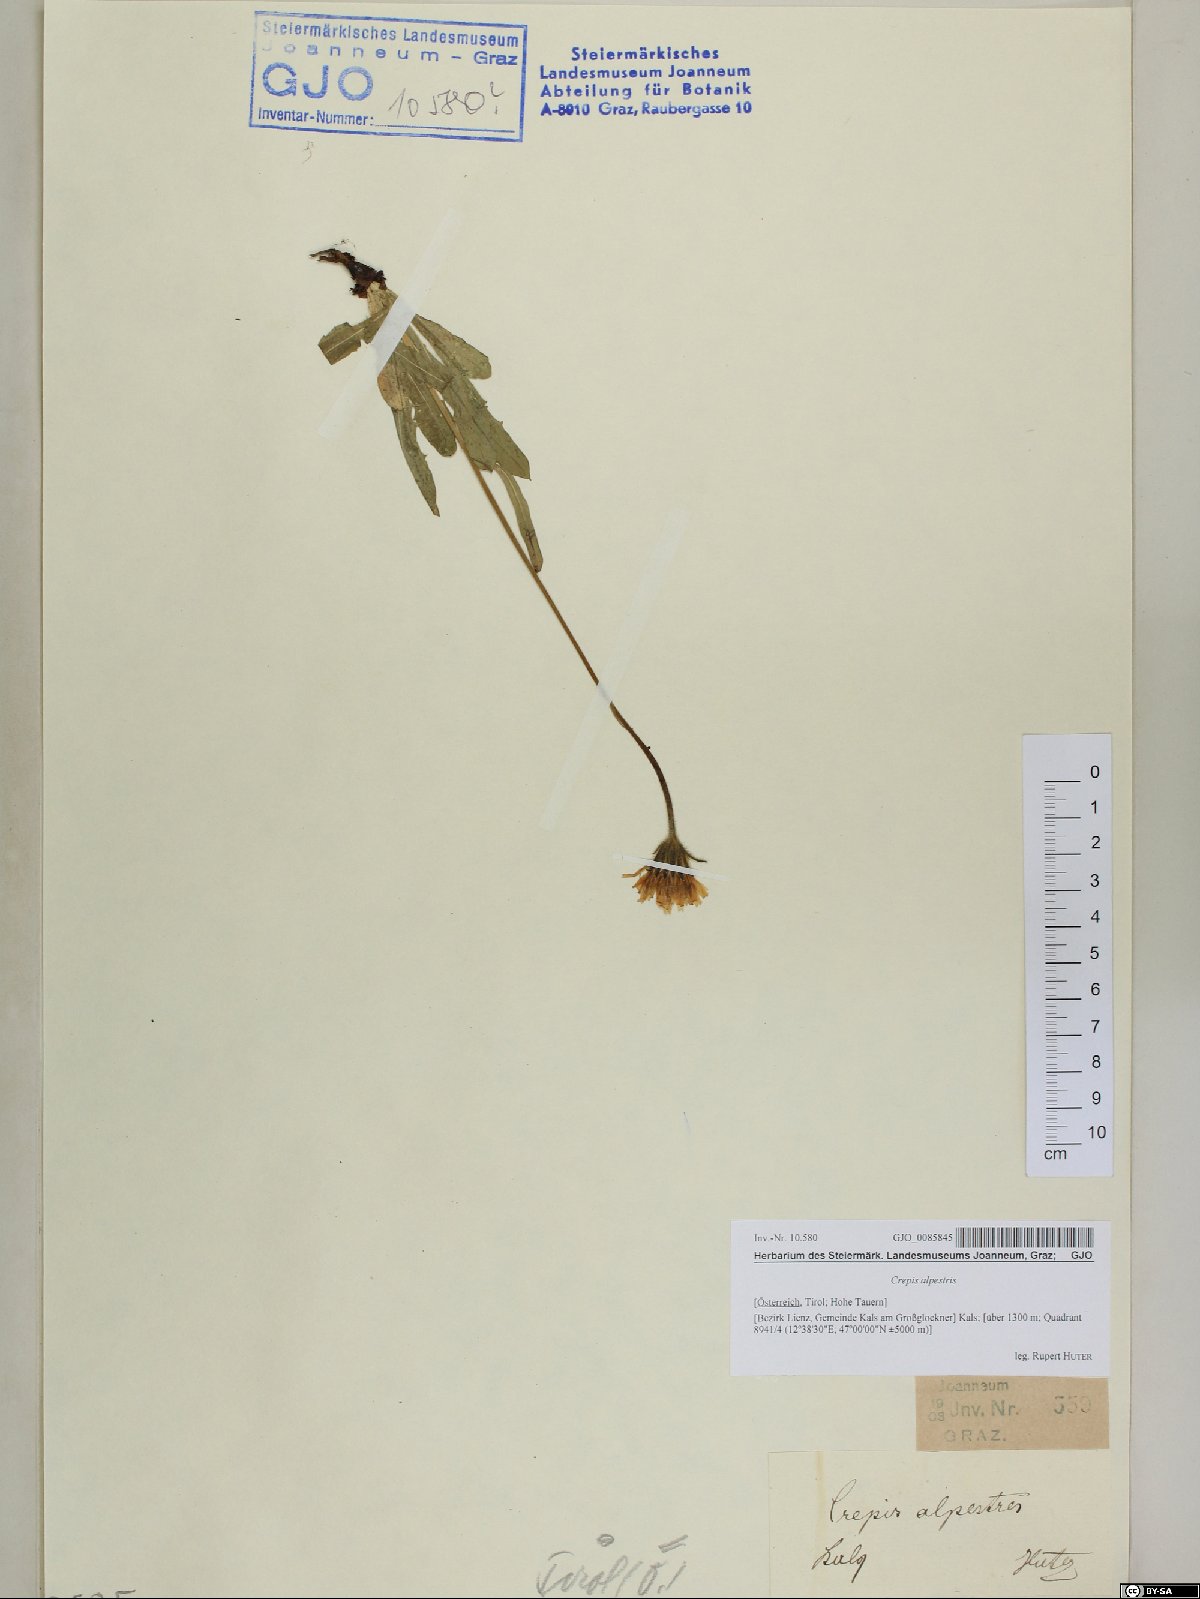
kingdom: Plantae
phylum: Tracheophyta
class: Magnoliopsida
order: Asterales
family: Asteraceae
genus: Crepis
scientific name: Crepis alpestris
